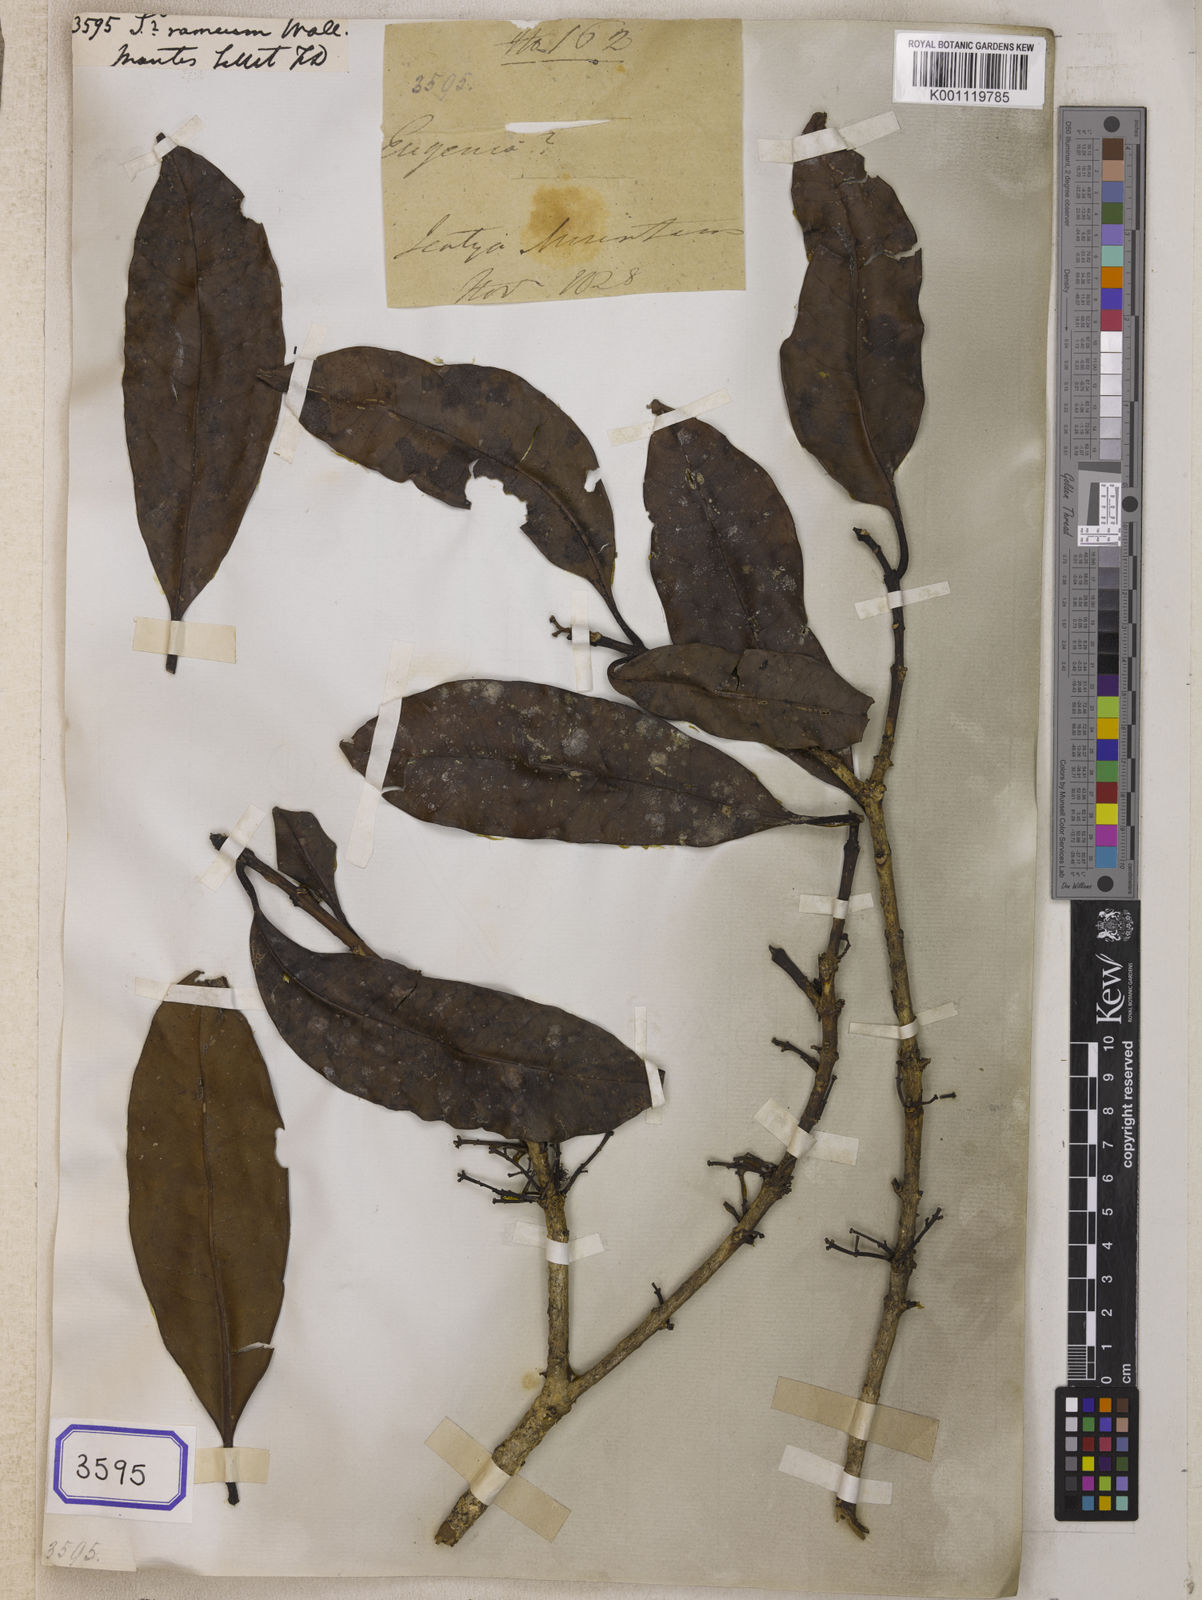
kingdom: Plantae
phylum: Tracheophyta
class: Magnoliopsida
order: Myrtales
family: Myrtaceae
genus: Syzygium
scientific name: Syzygium
